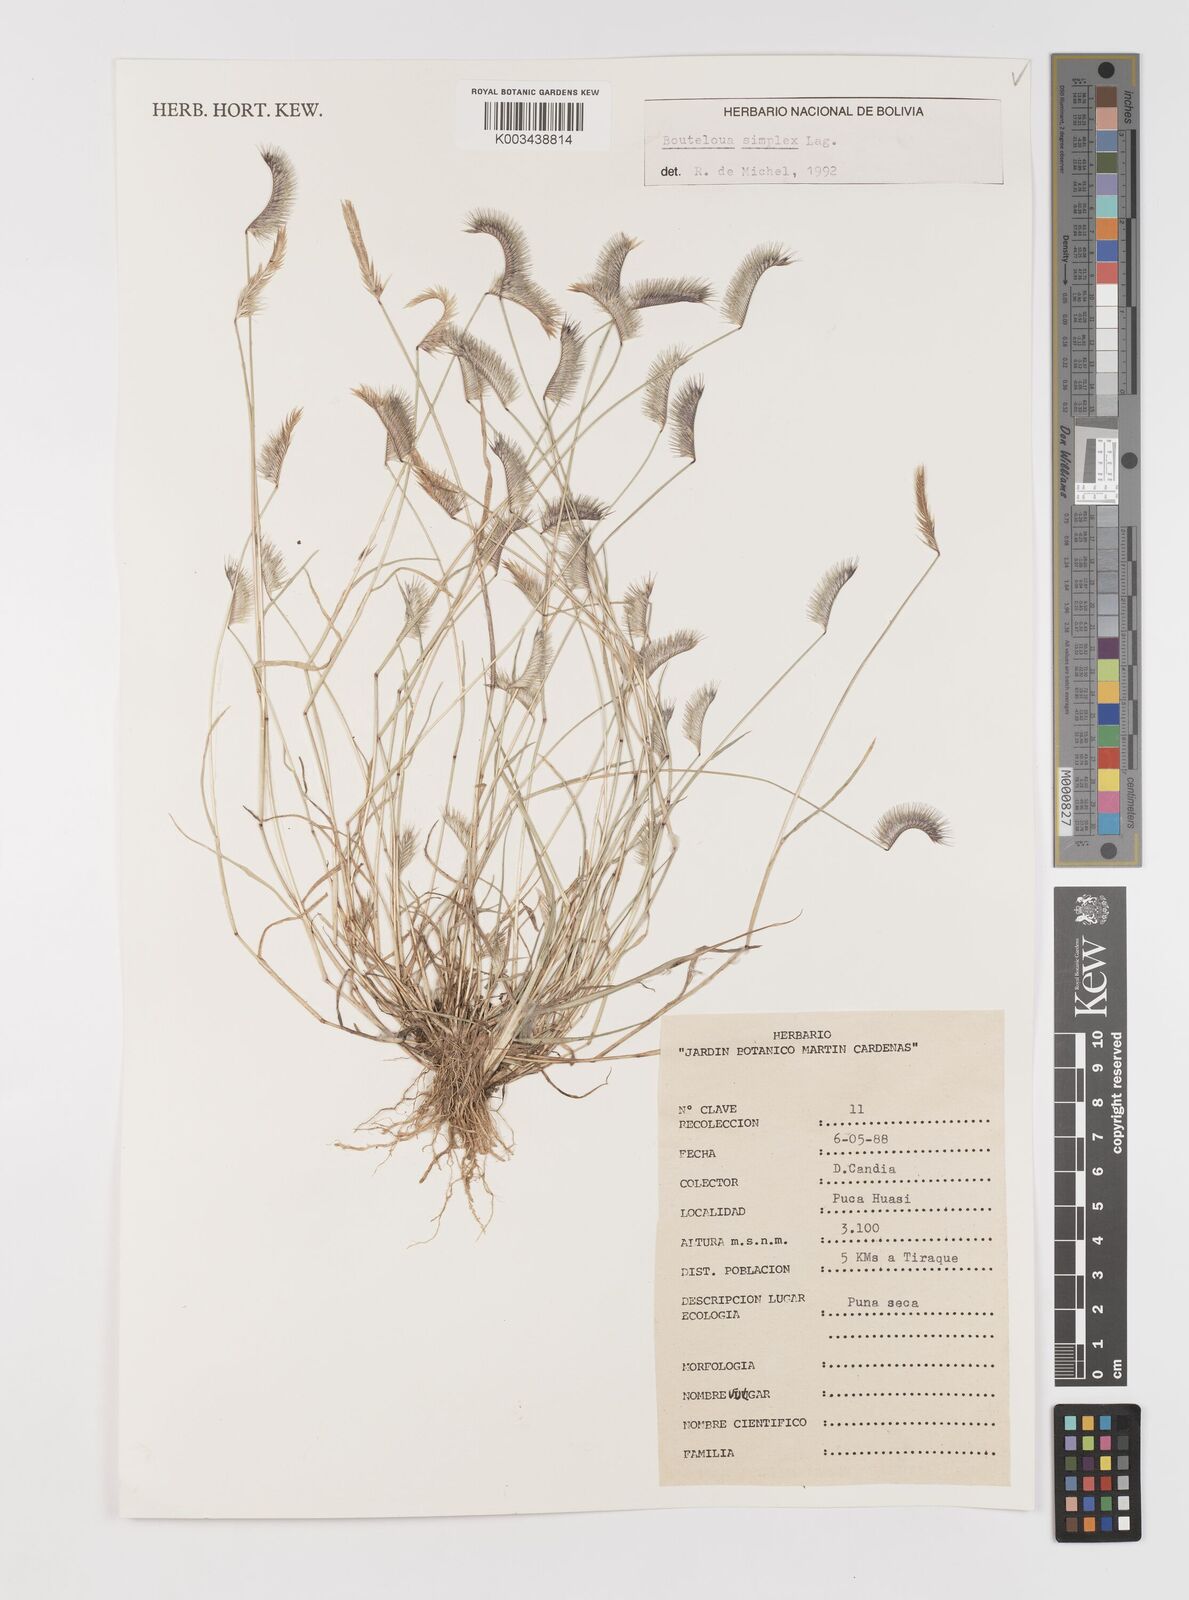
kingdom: Plantae
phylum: Tracheophyta
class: Liliopsida
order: Poales
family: Poaceae
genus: Bouteloua
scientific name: Bouteloua simplex
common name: Mat grama
